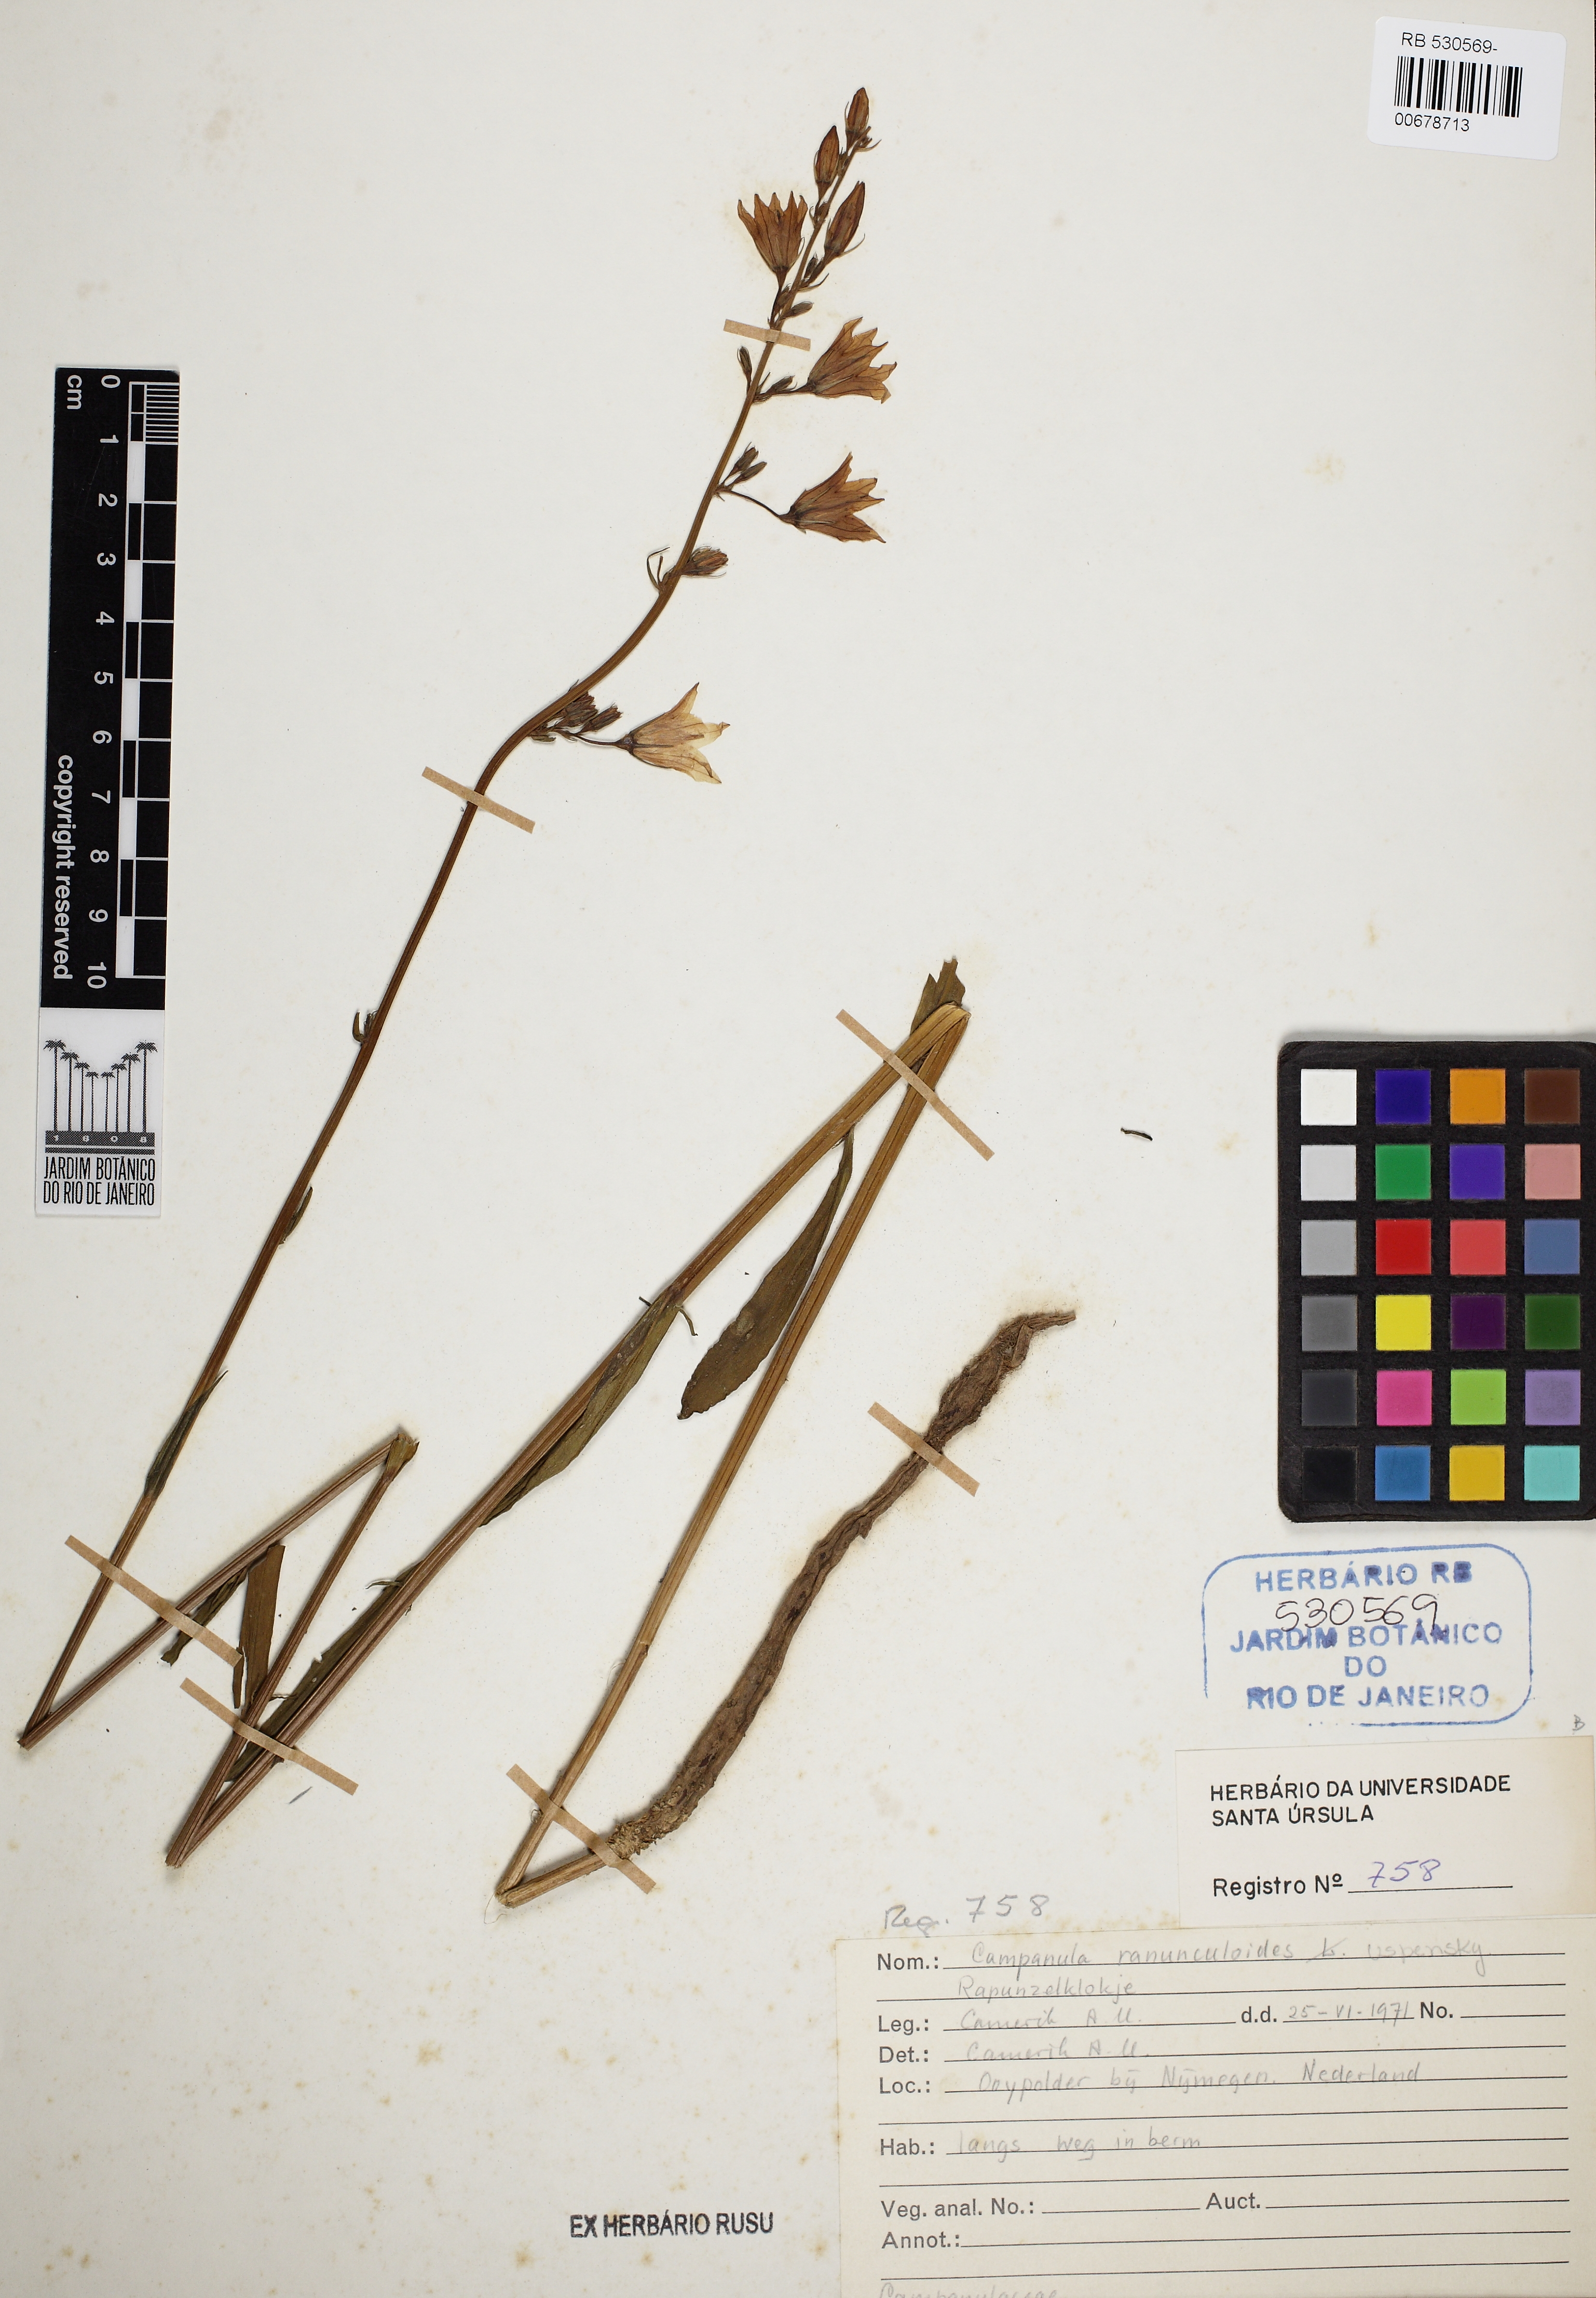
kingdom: Plantae
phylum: Tracheophyta
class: Magnoliopsida
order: Asterales
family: Campanulaceae
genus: Campanula
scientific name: Campanula rapunculoides
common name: Creeping bellflower
